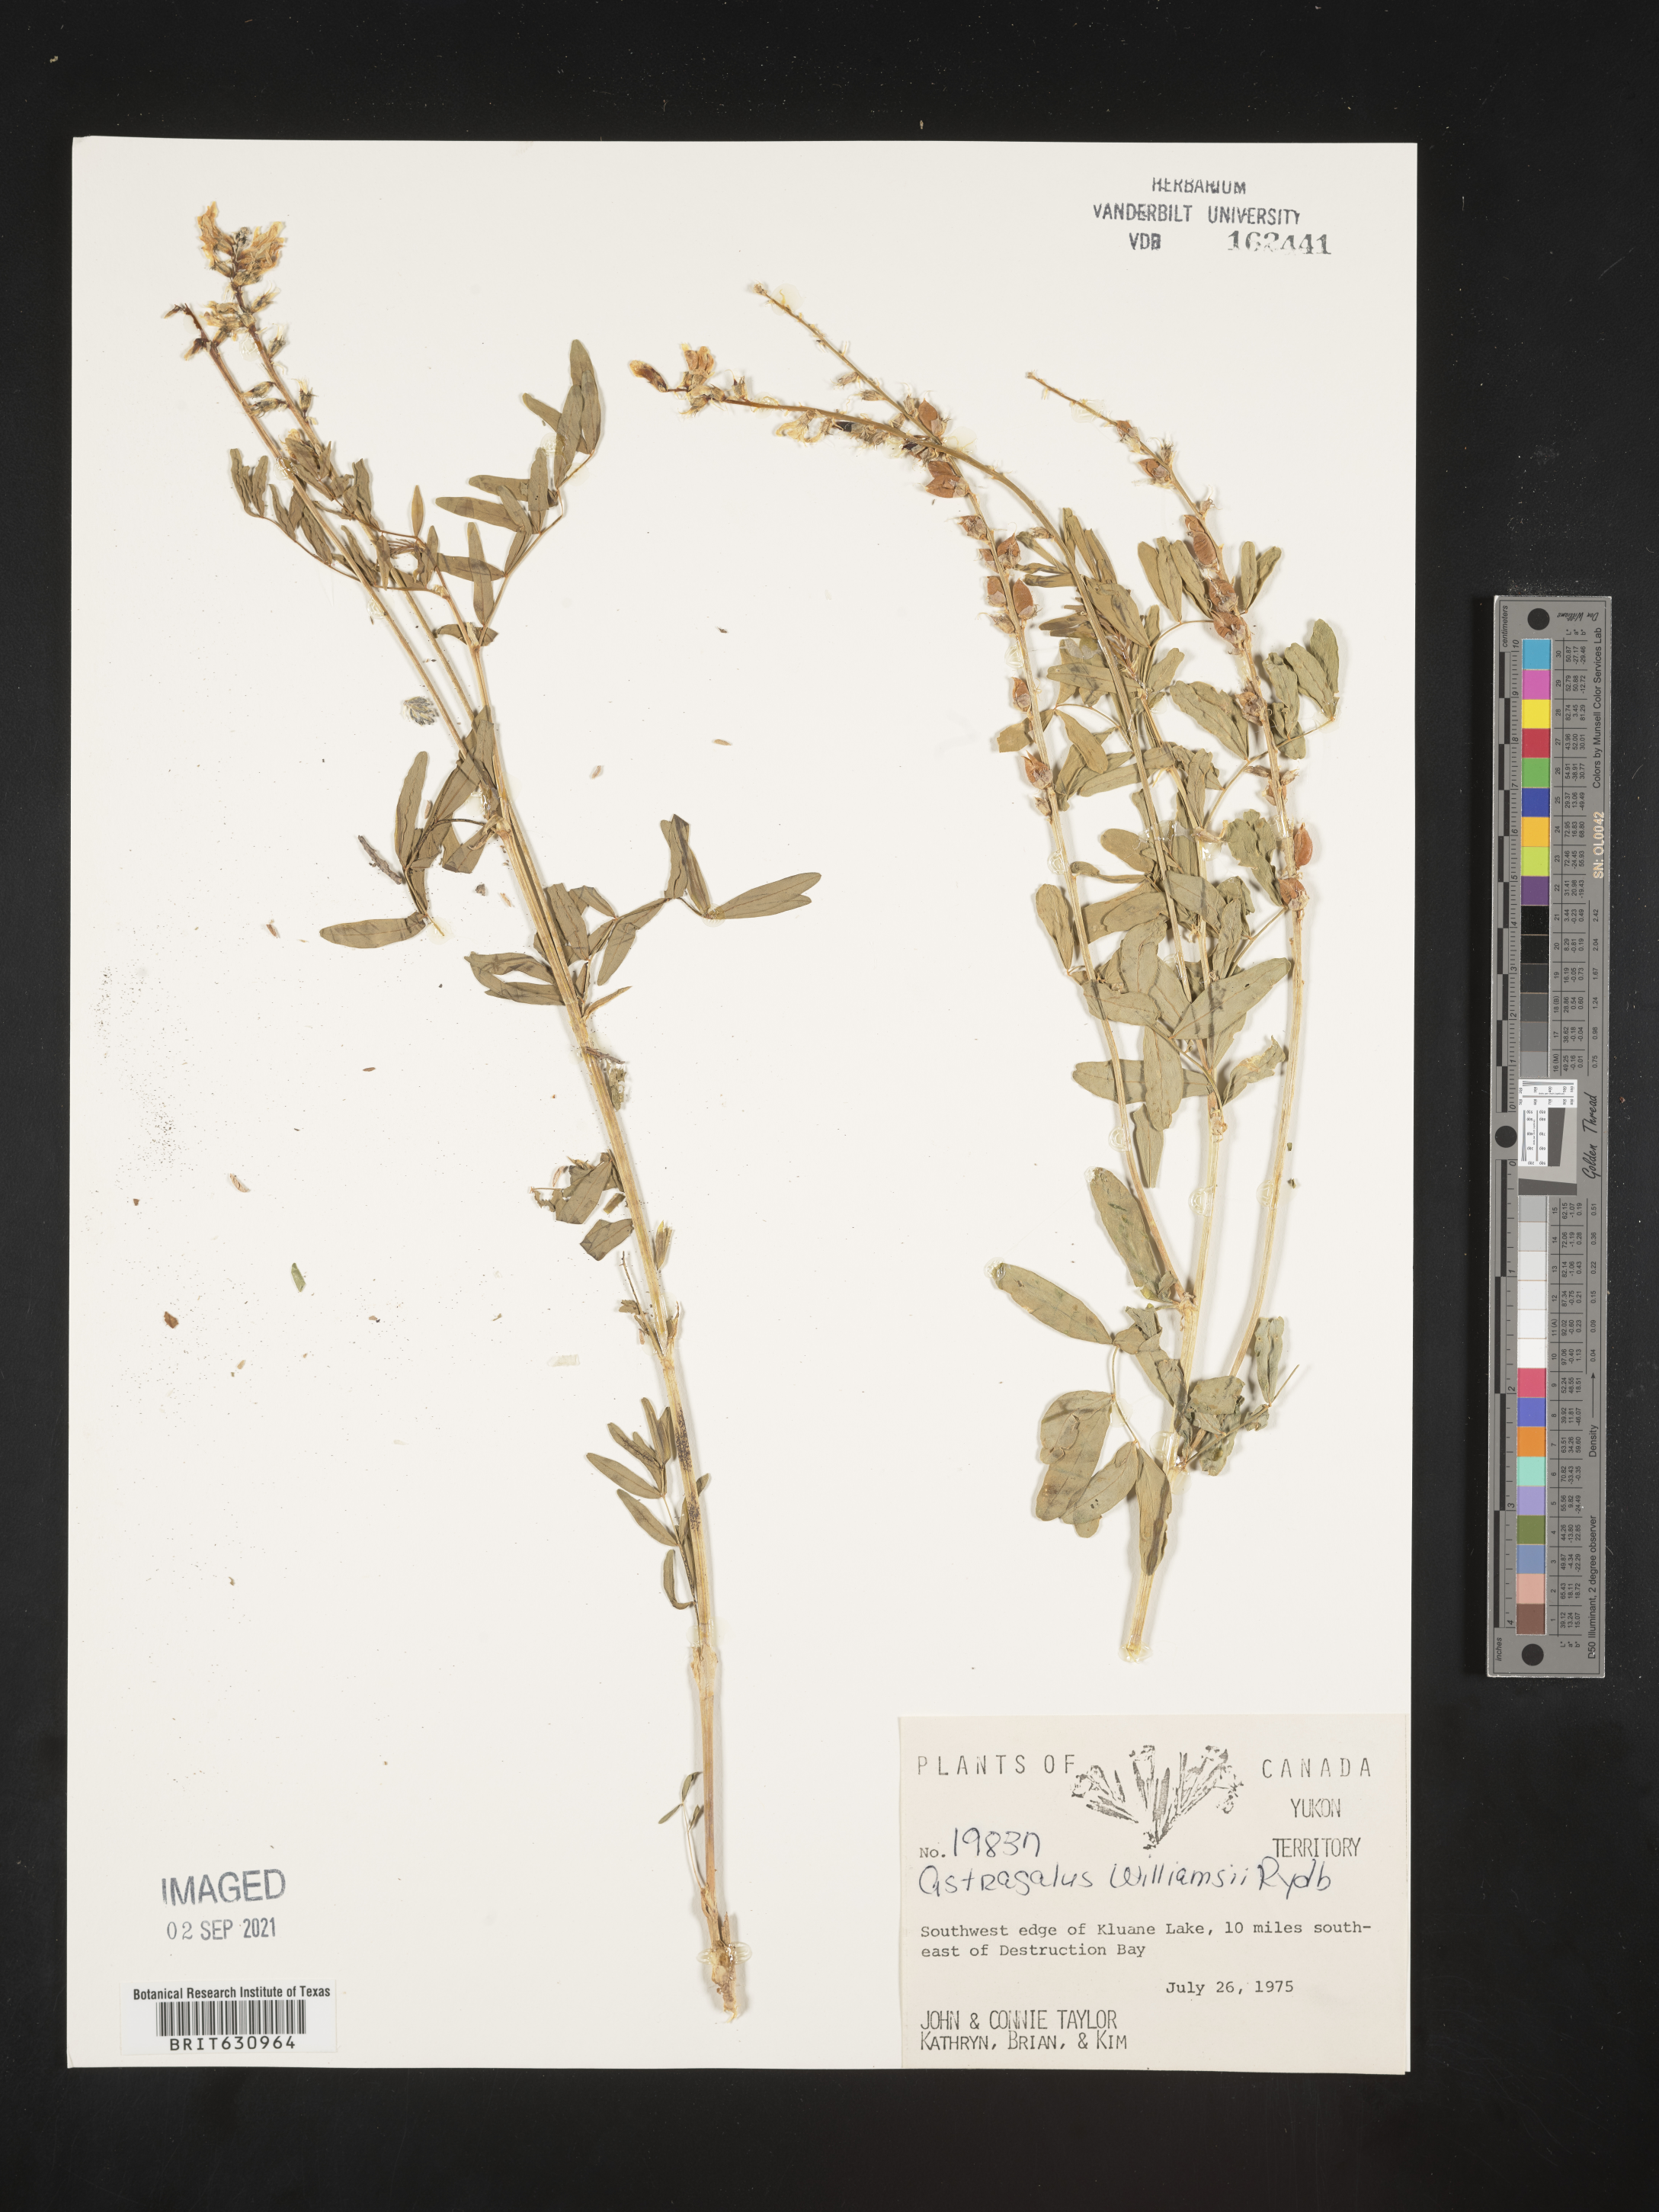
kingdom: Plantae
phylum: Tracheophyta
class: Magnoliopsida
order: Fabales
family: Fabaceae
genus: Astragalus
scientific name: Astragalus
